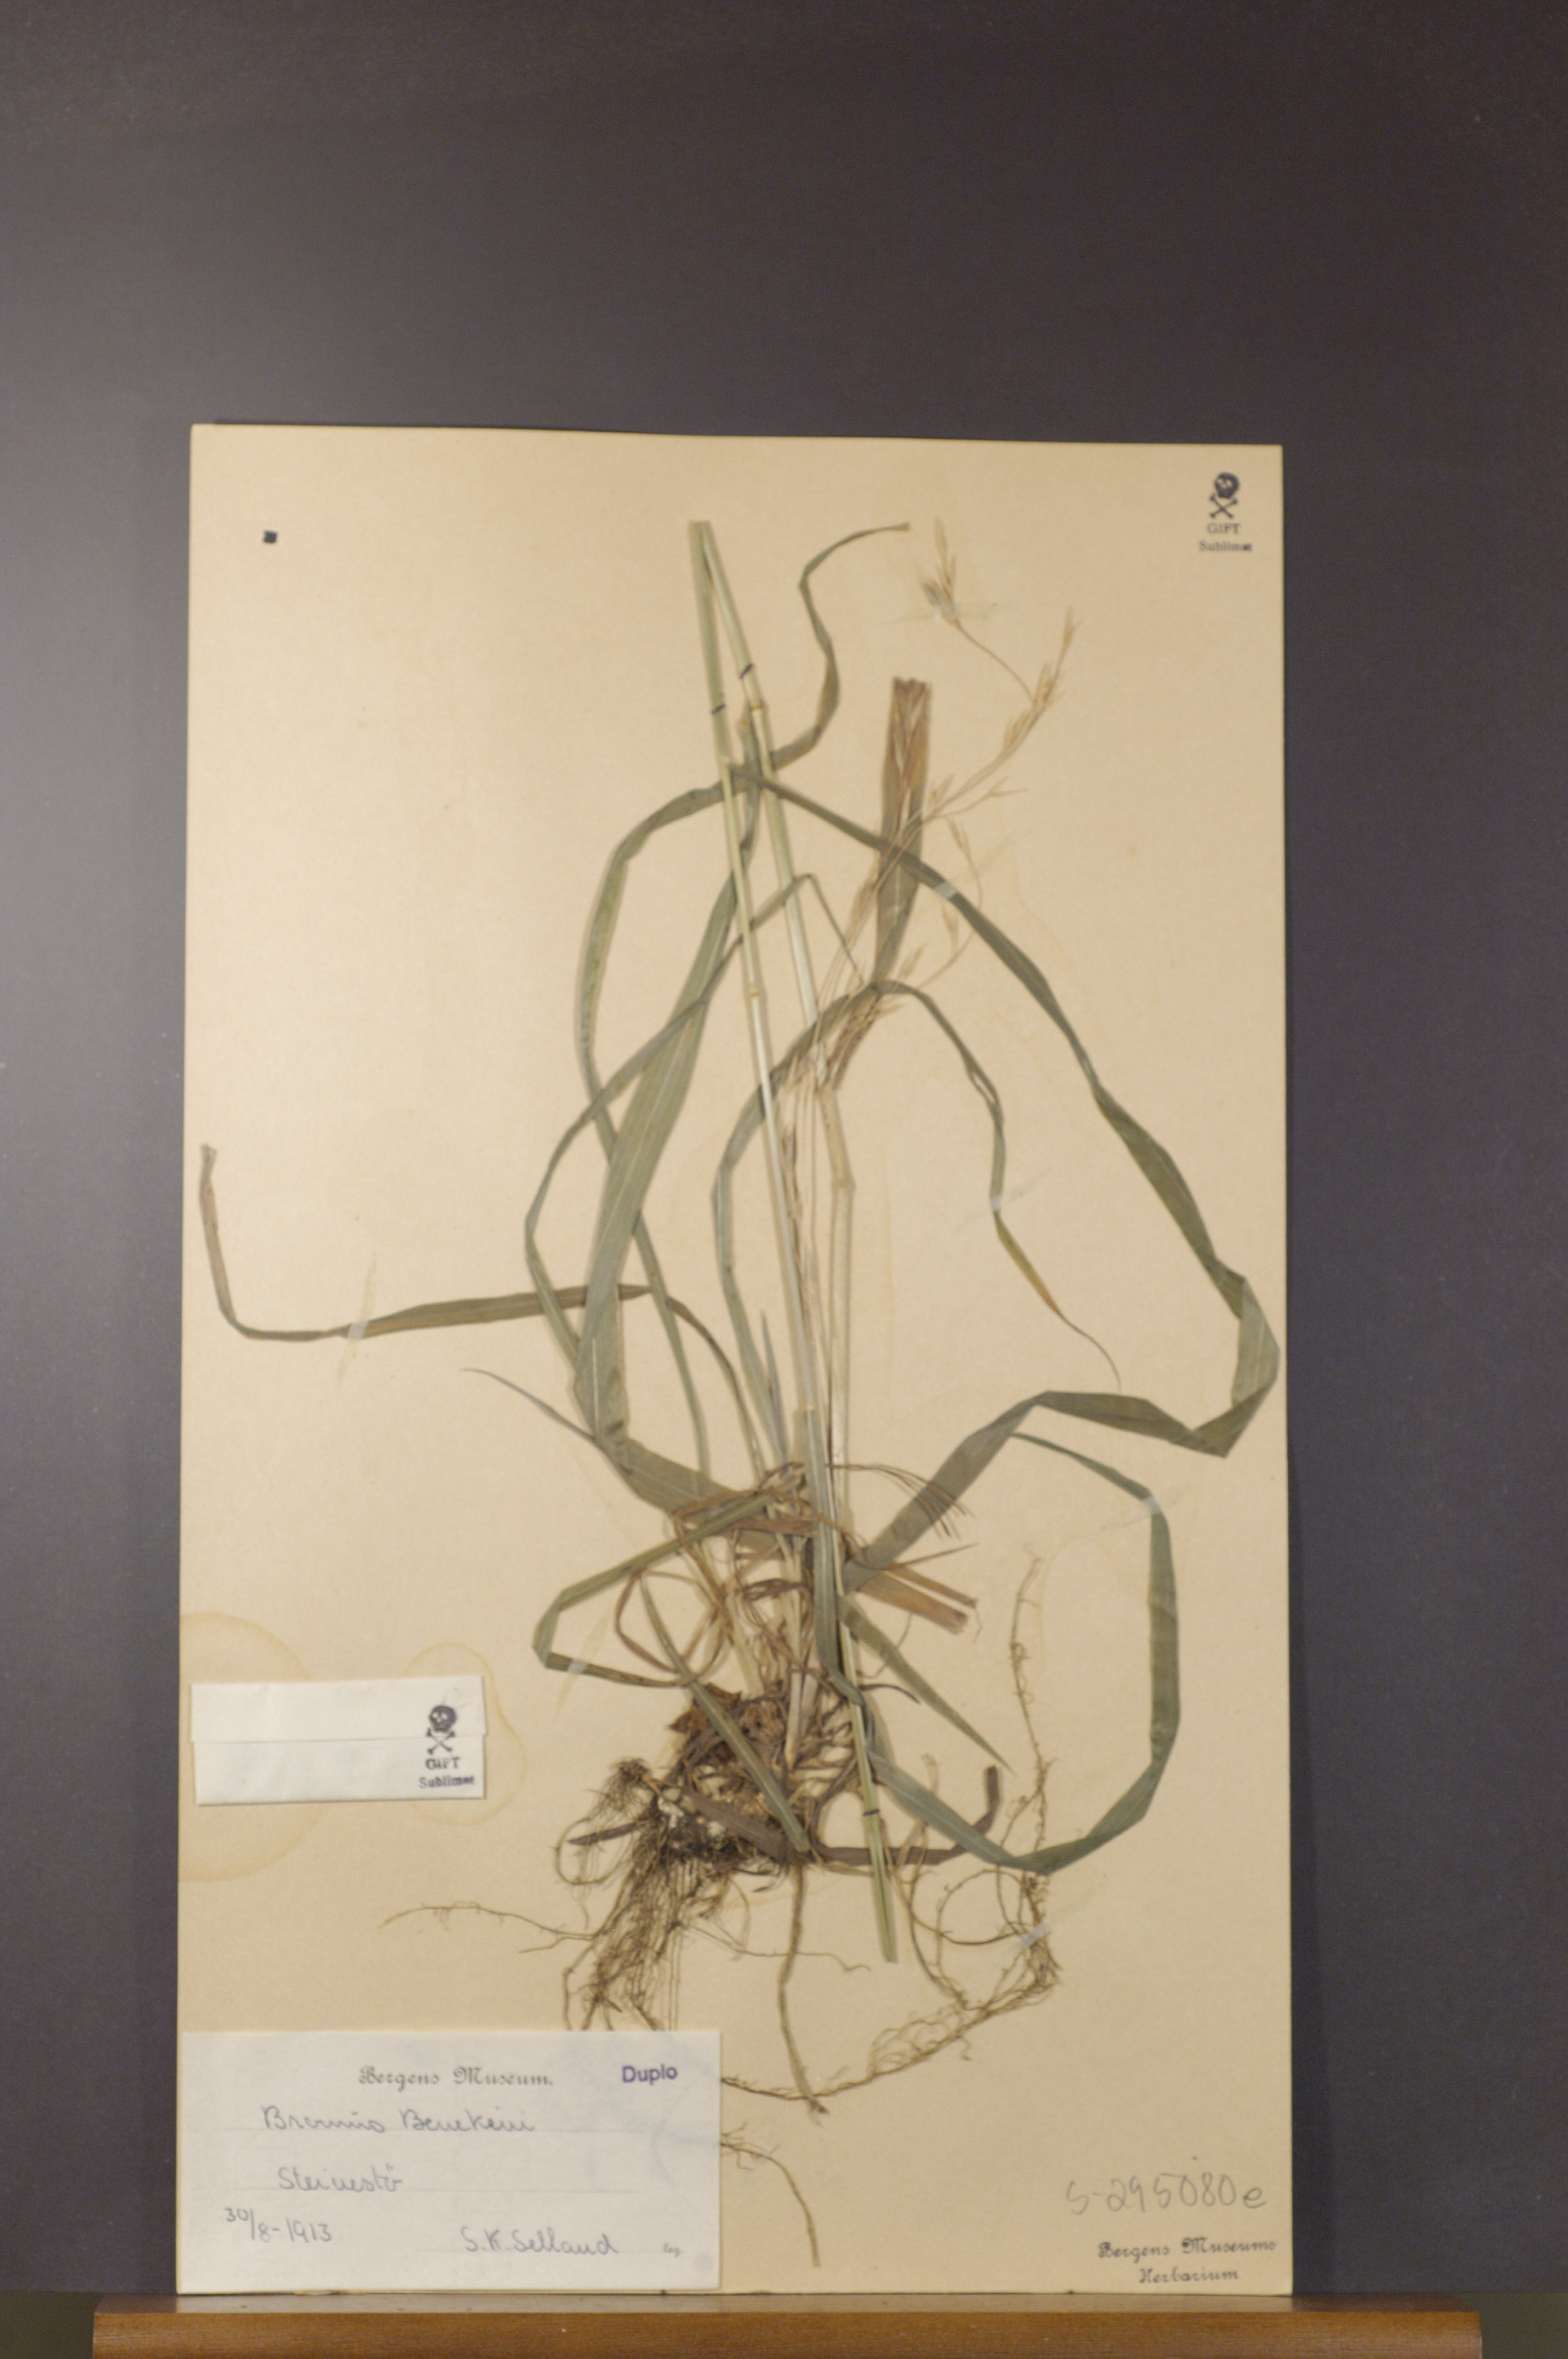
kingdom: Plantae
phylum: Tracheophyta
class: Liliopsida
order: Poales
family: Poaceae
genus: Bromus
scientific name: Bromus benekenii
